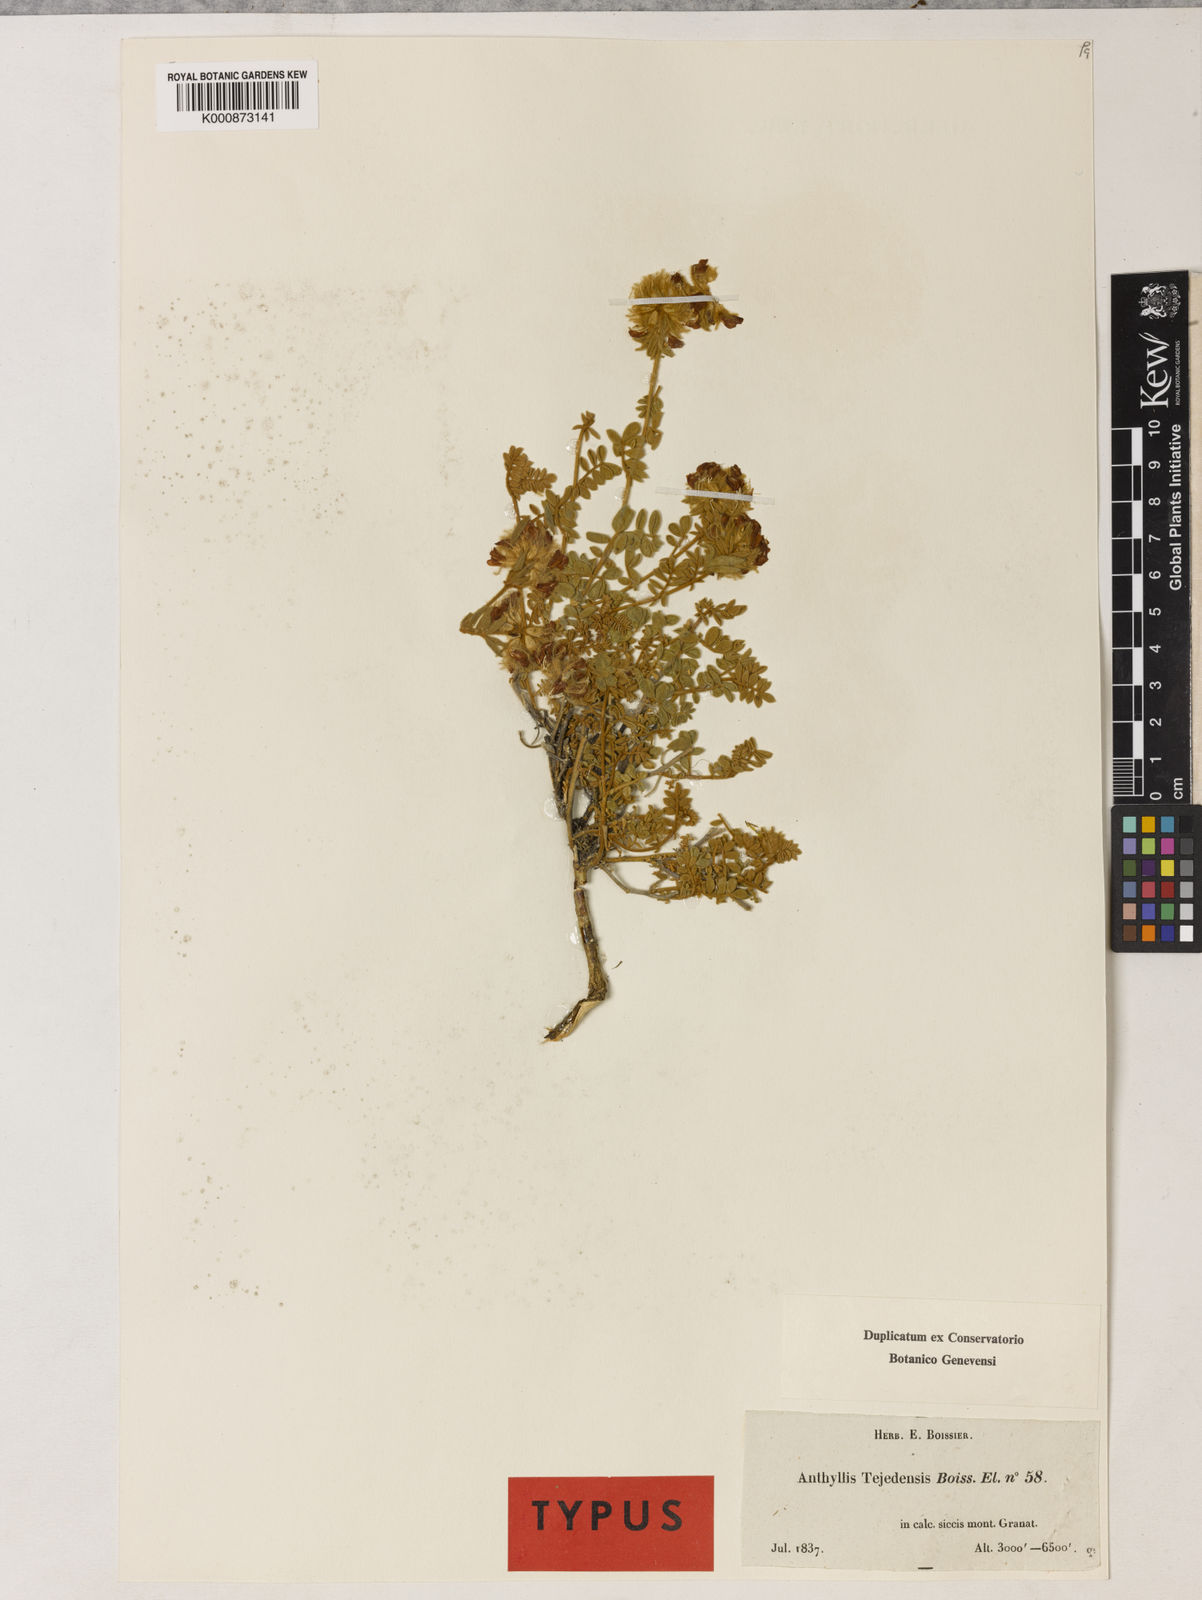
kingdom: Plantae
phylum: Tracheophyta
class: Magnoliopsida
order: Fabales
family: Fabaceae
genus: Anthyllis
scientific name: Anthyllis tejedensis
